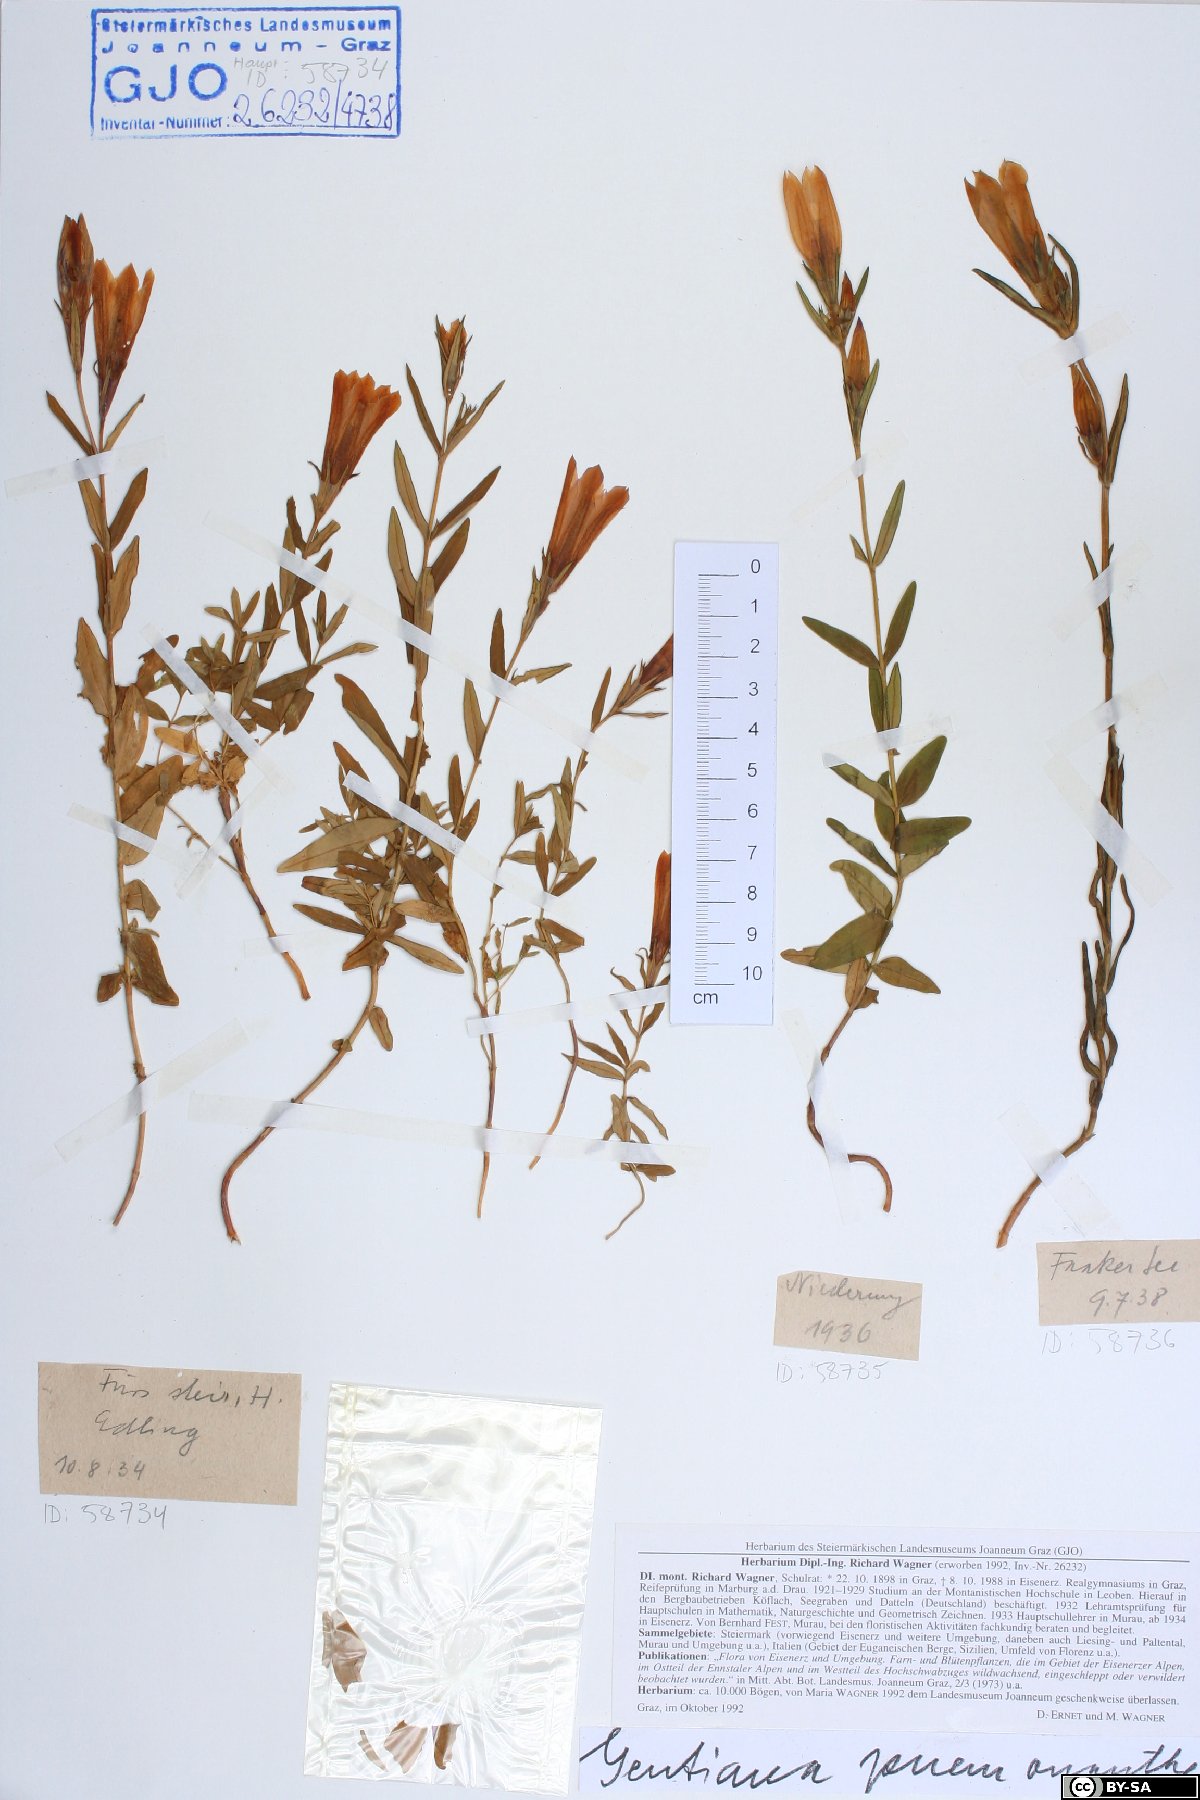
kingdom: Plantae
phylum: Tracheophyta
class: Magnoliopsida
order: Gentianales
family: Gentianaceae
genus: Gentiana
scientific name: Gentiana pneumonanthe
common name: Marsh gentian
